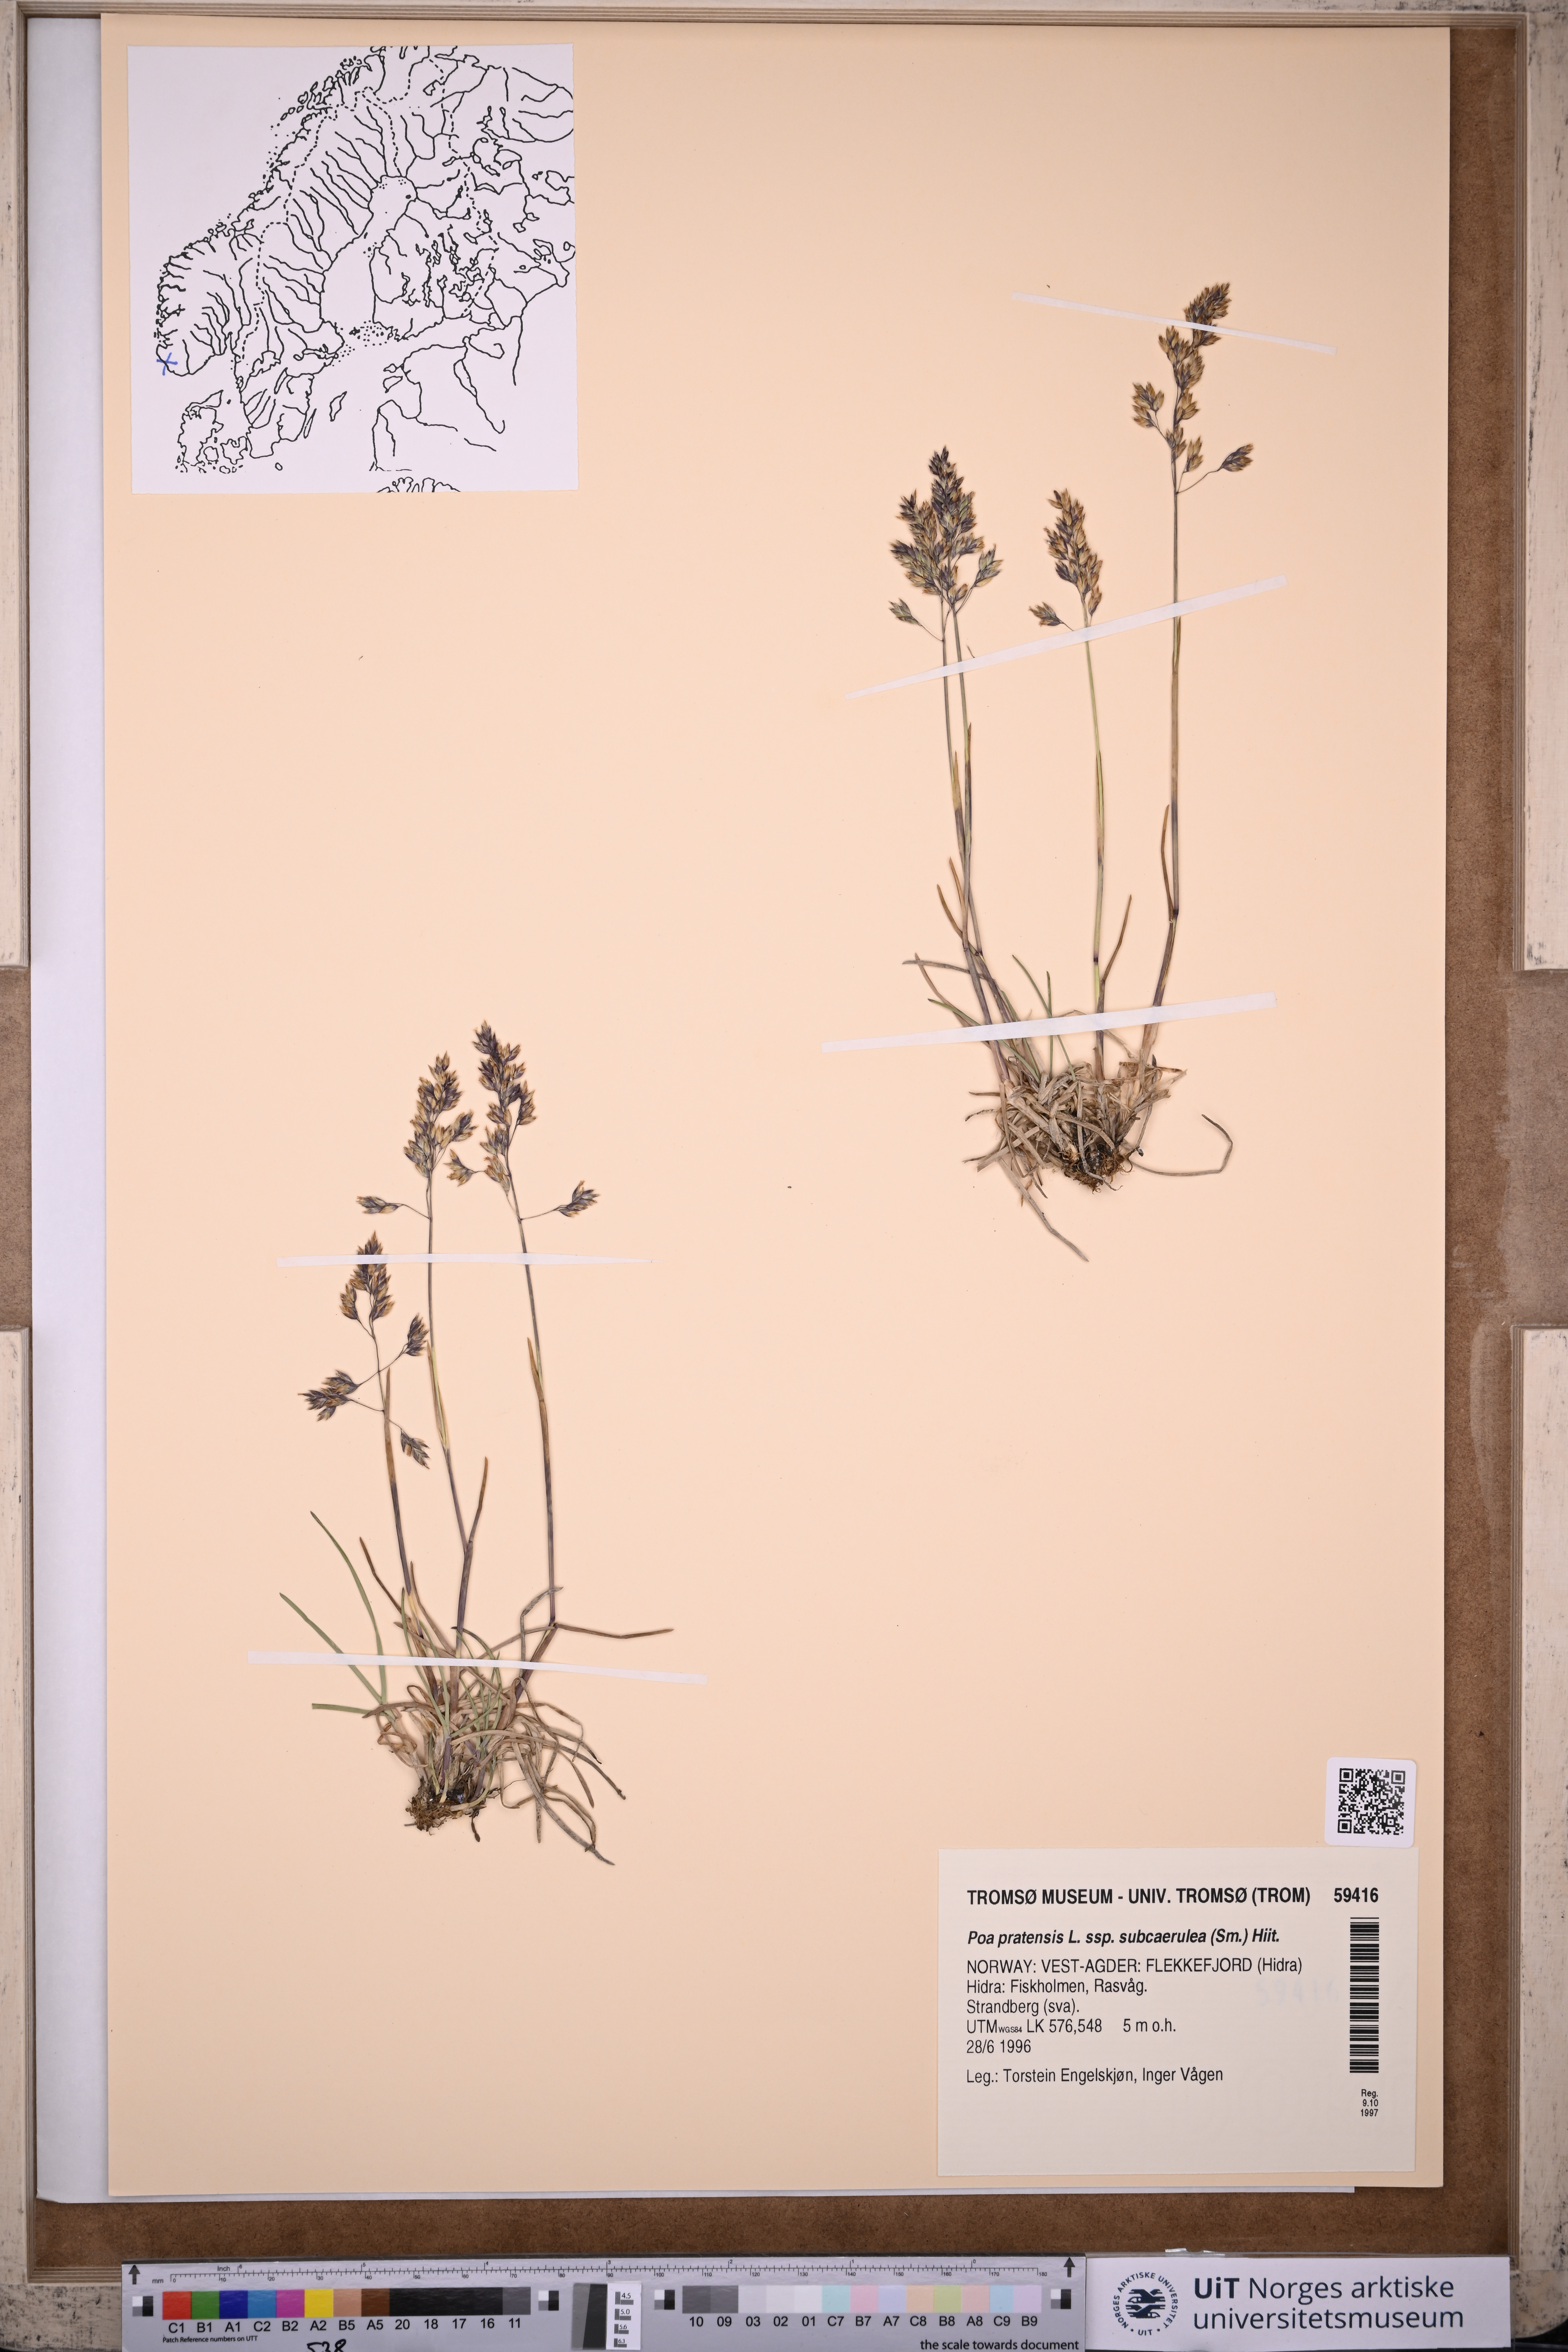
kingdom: Plantae
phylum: Tracheophyta
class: Liliopsida
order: Poales
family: Poaceae
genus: Poa
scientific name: Poa humilis
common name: Spreading meadow-grass
